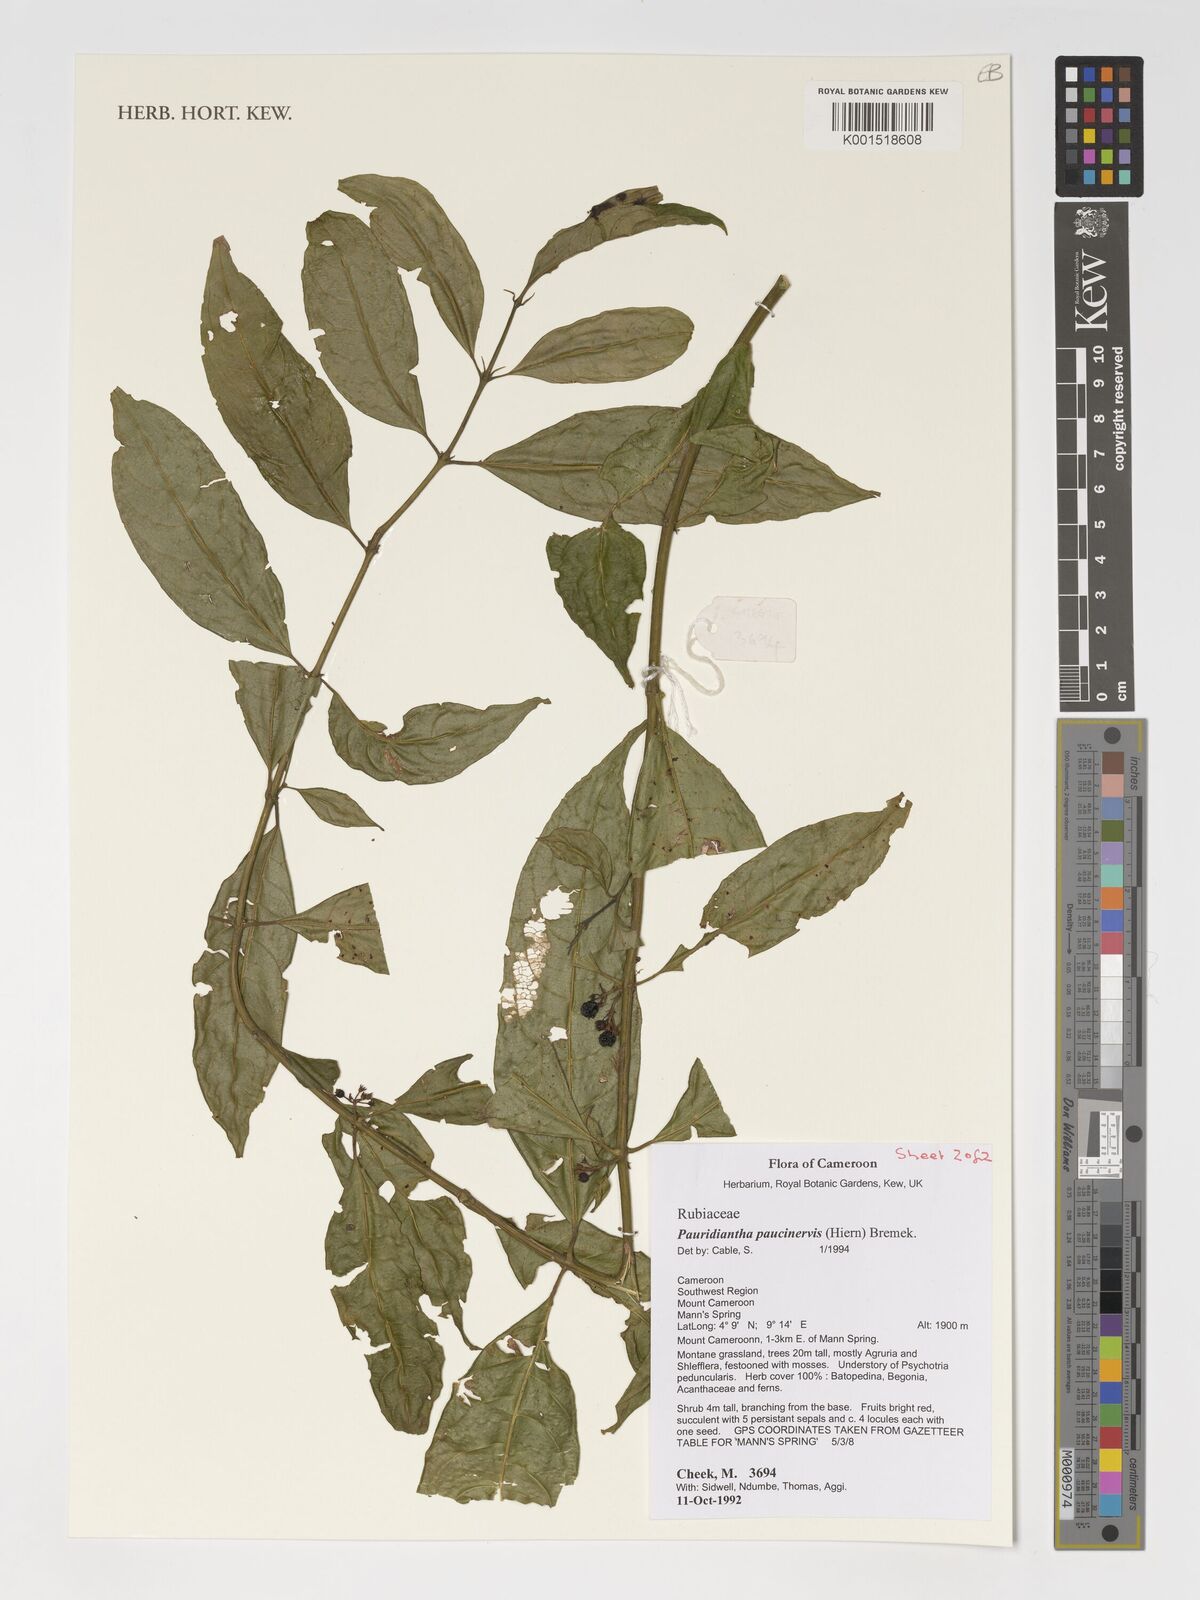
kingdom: Plantae
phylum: Tracheophyta
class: Magnoliopsida
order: Gentianales
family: Rubiaceae
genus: Pauridiantha
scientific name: Pauridiantha paucinervis
